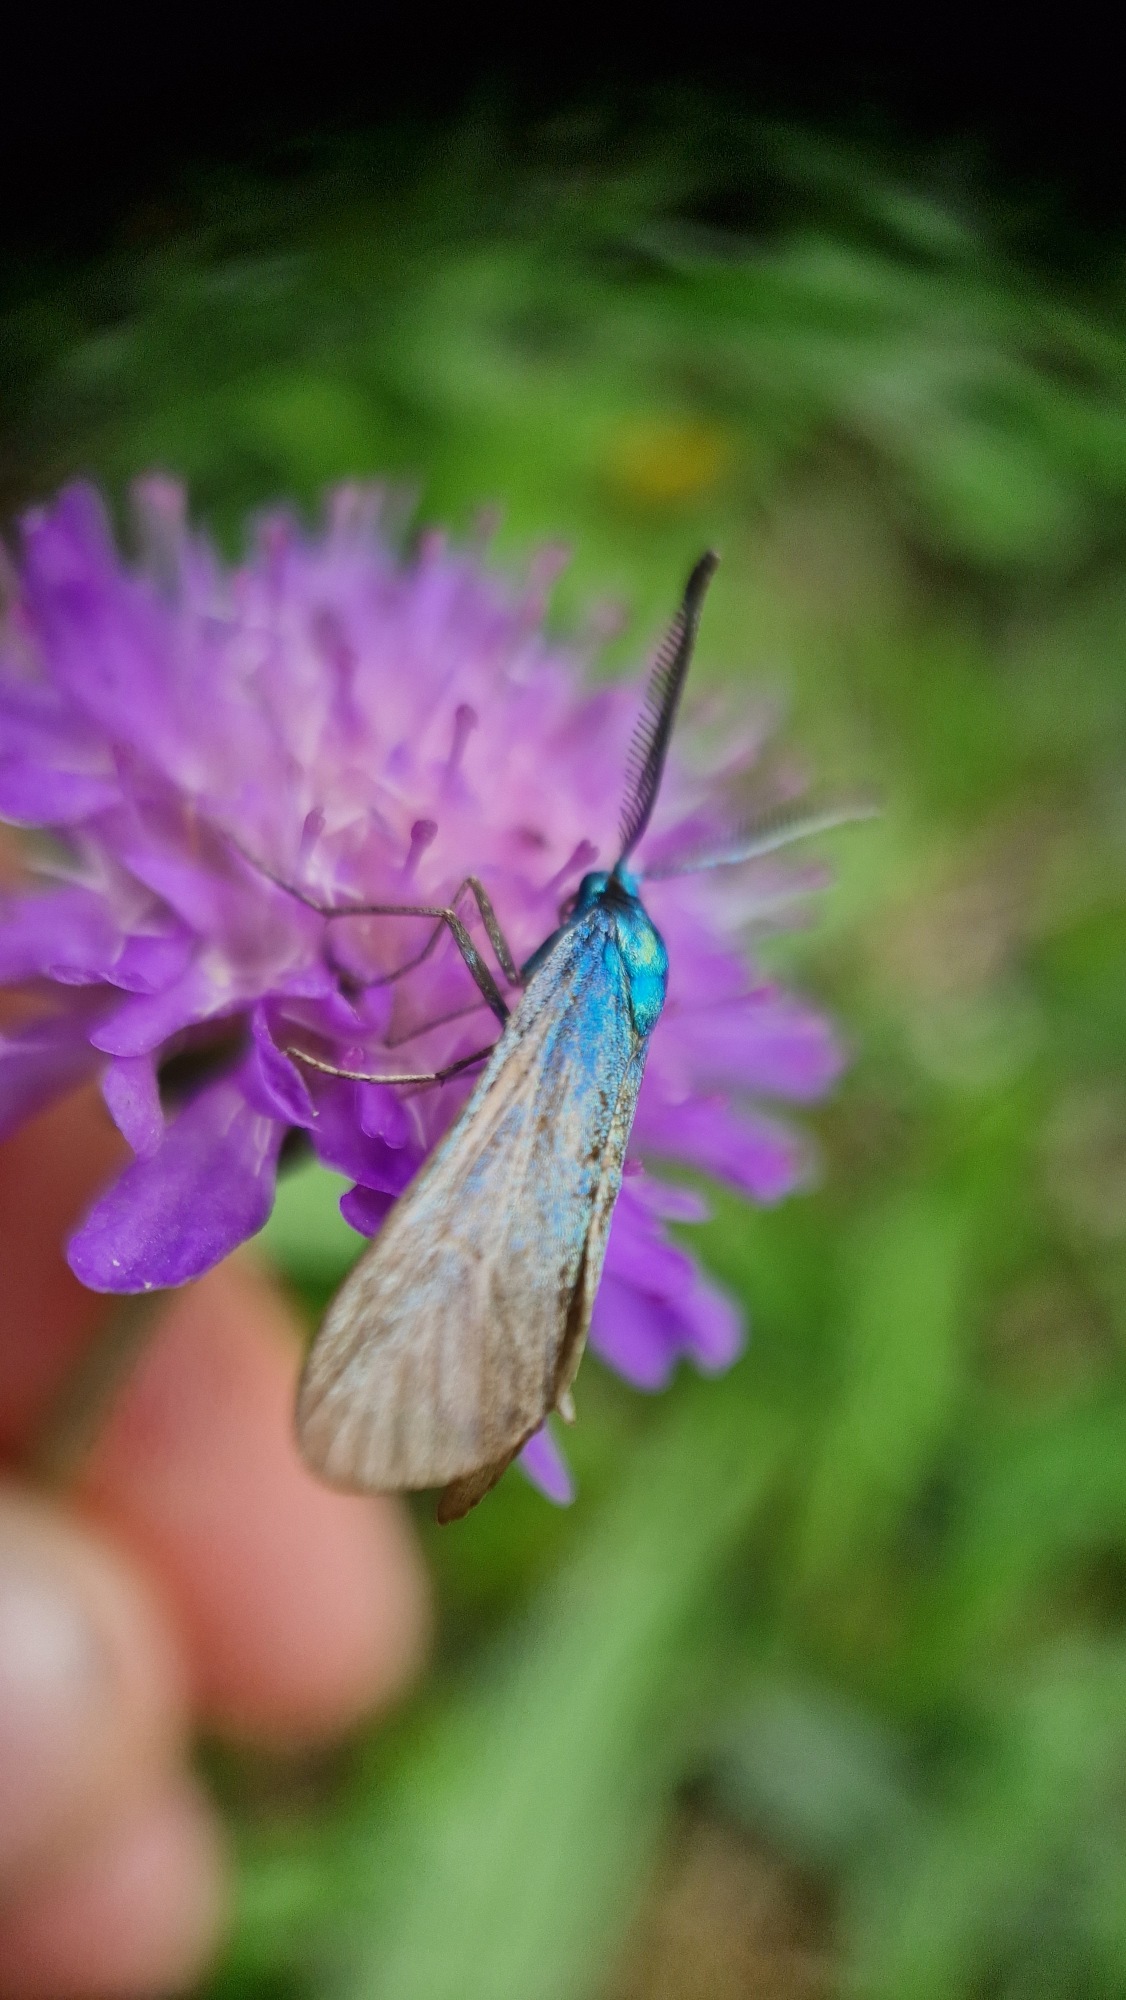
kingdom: Animalia
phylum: Arthropoda
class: Insecta
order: Lepidoptera
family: Zygaenidae
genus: Adscita
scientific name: Adscita statices
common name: Metalvinge
